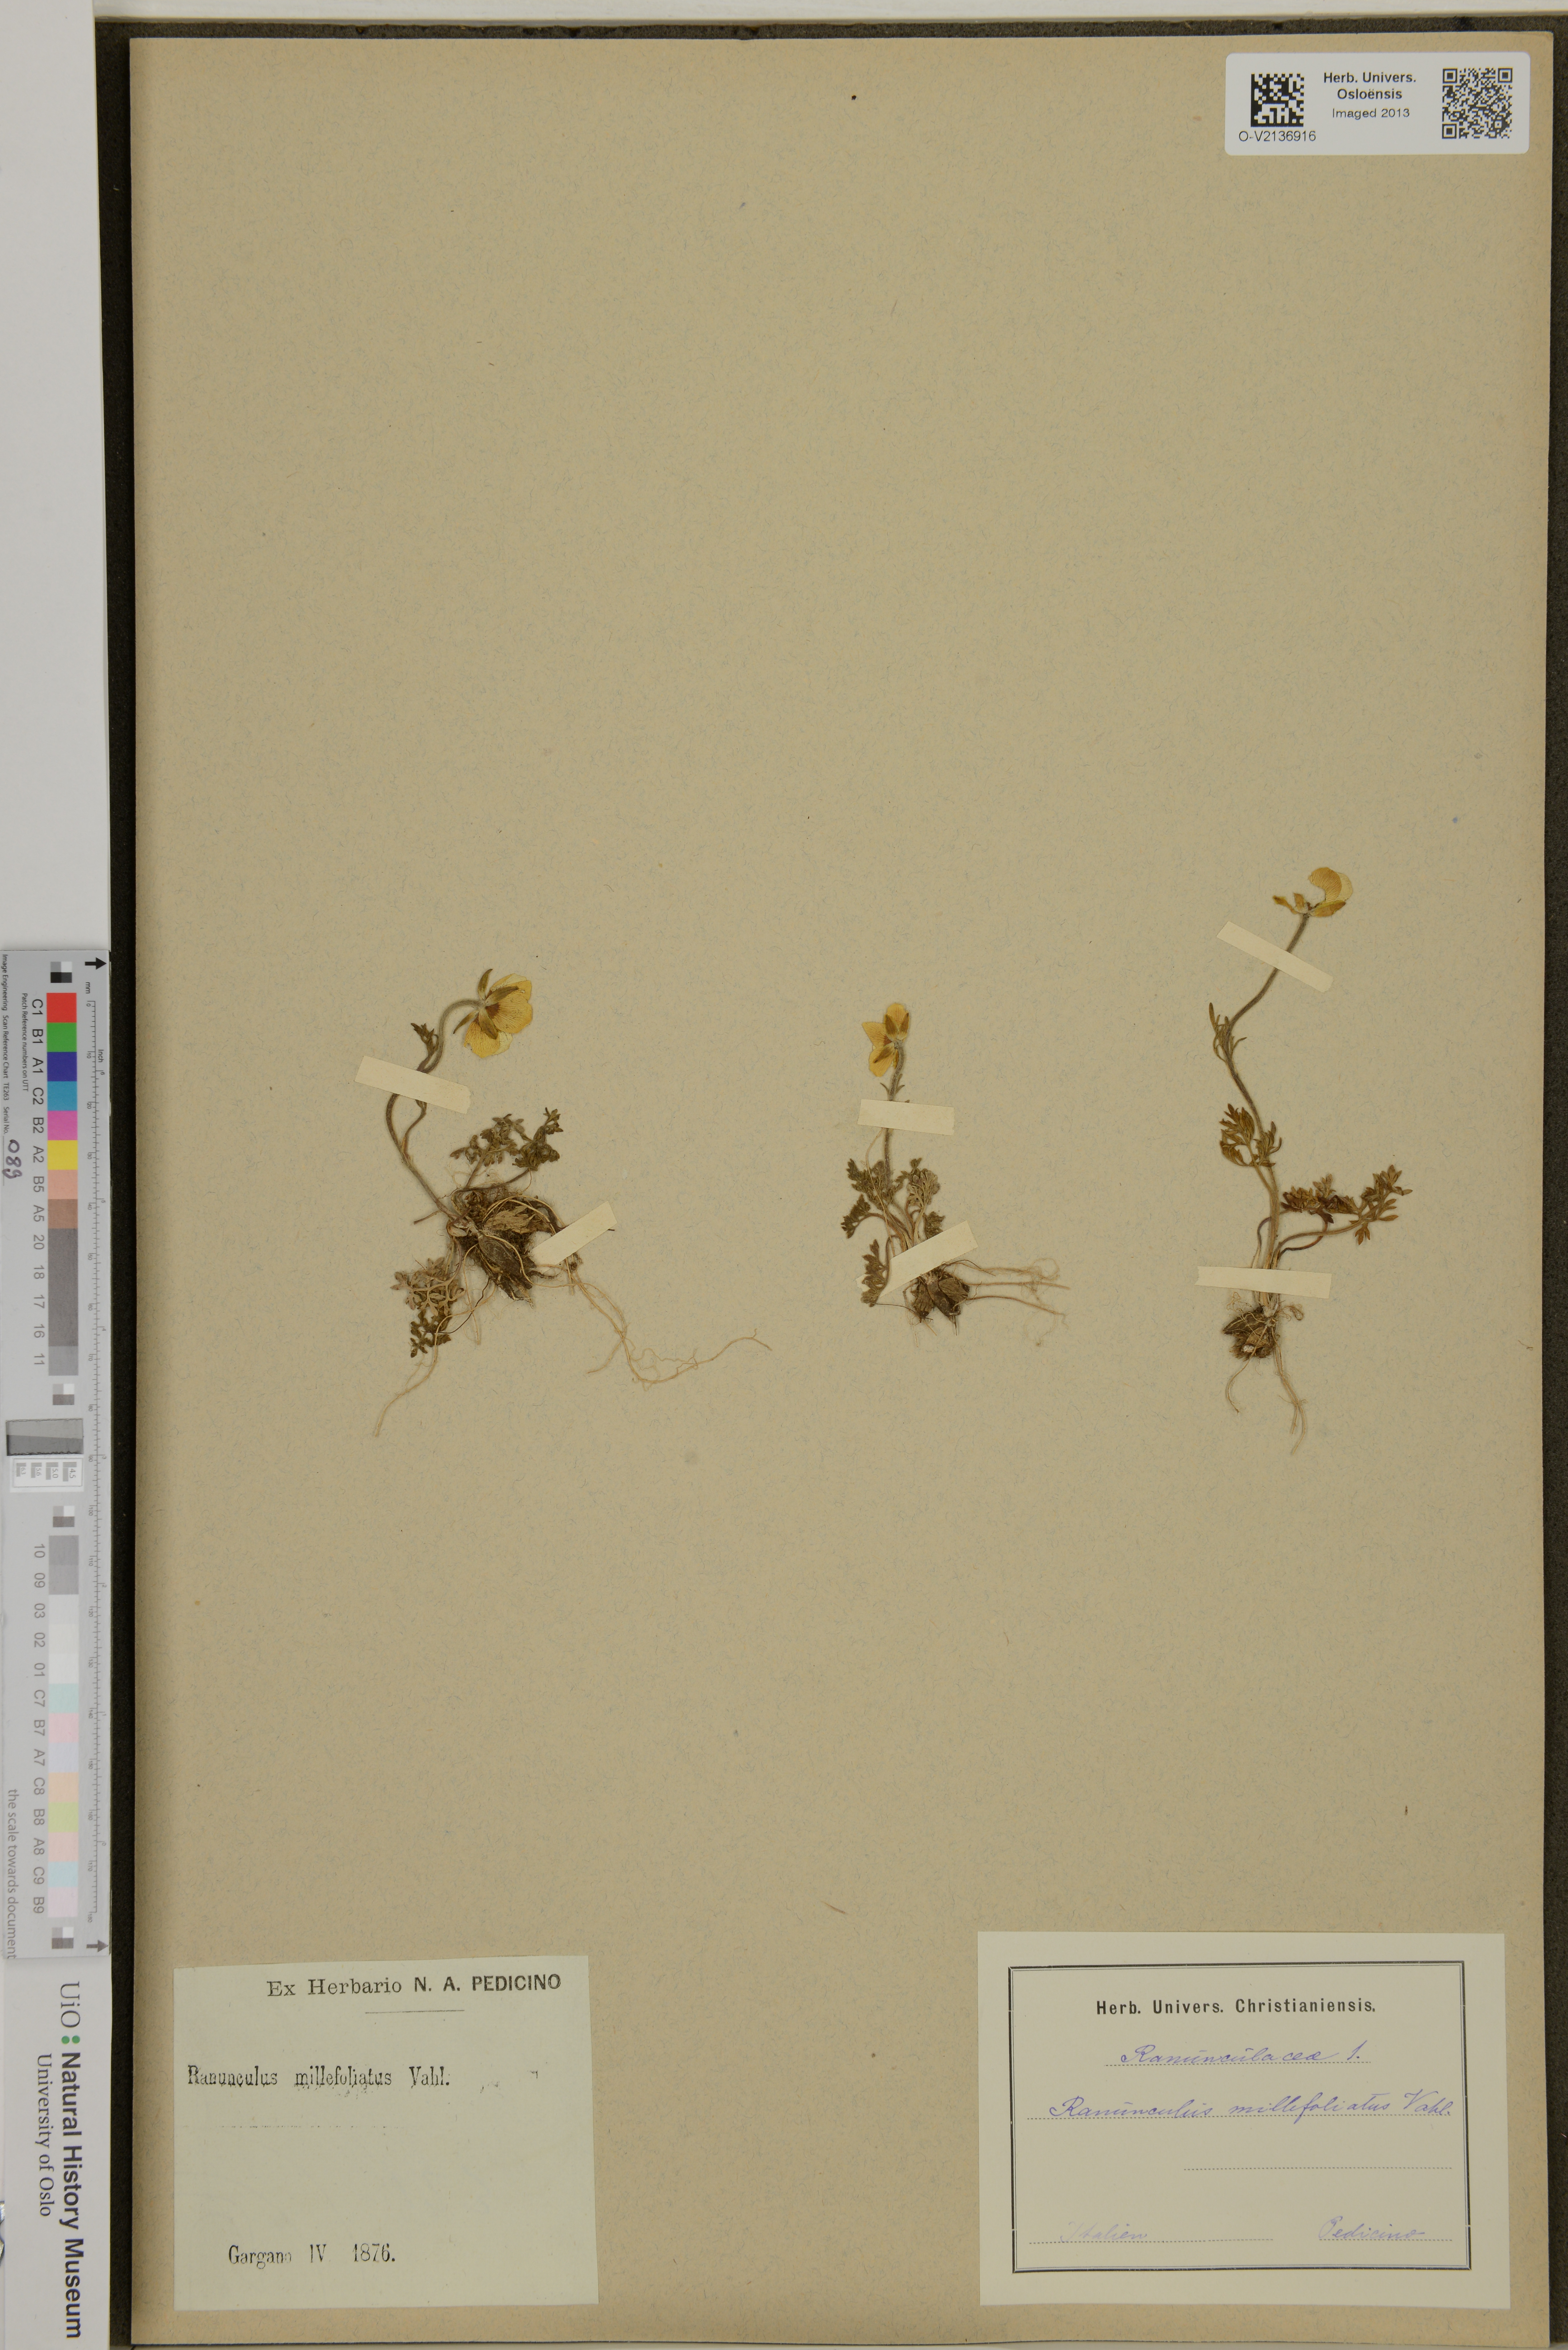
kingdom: Plantae
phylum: Tracheophyta
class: Magnoliopsida
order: Ranunculales
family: Ranunculaceae
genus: Ranunculus
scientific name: Ranunculus millefoliatus
